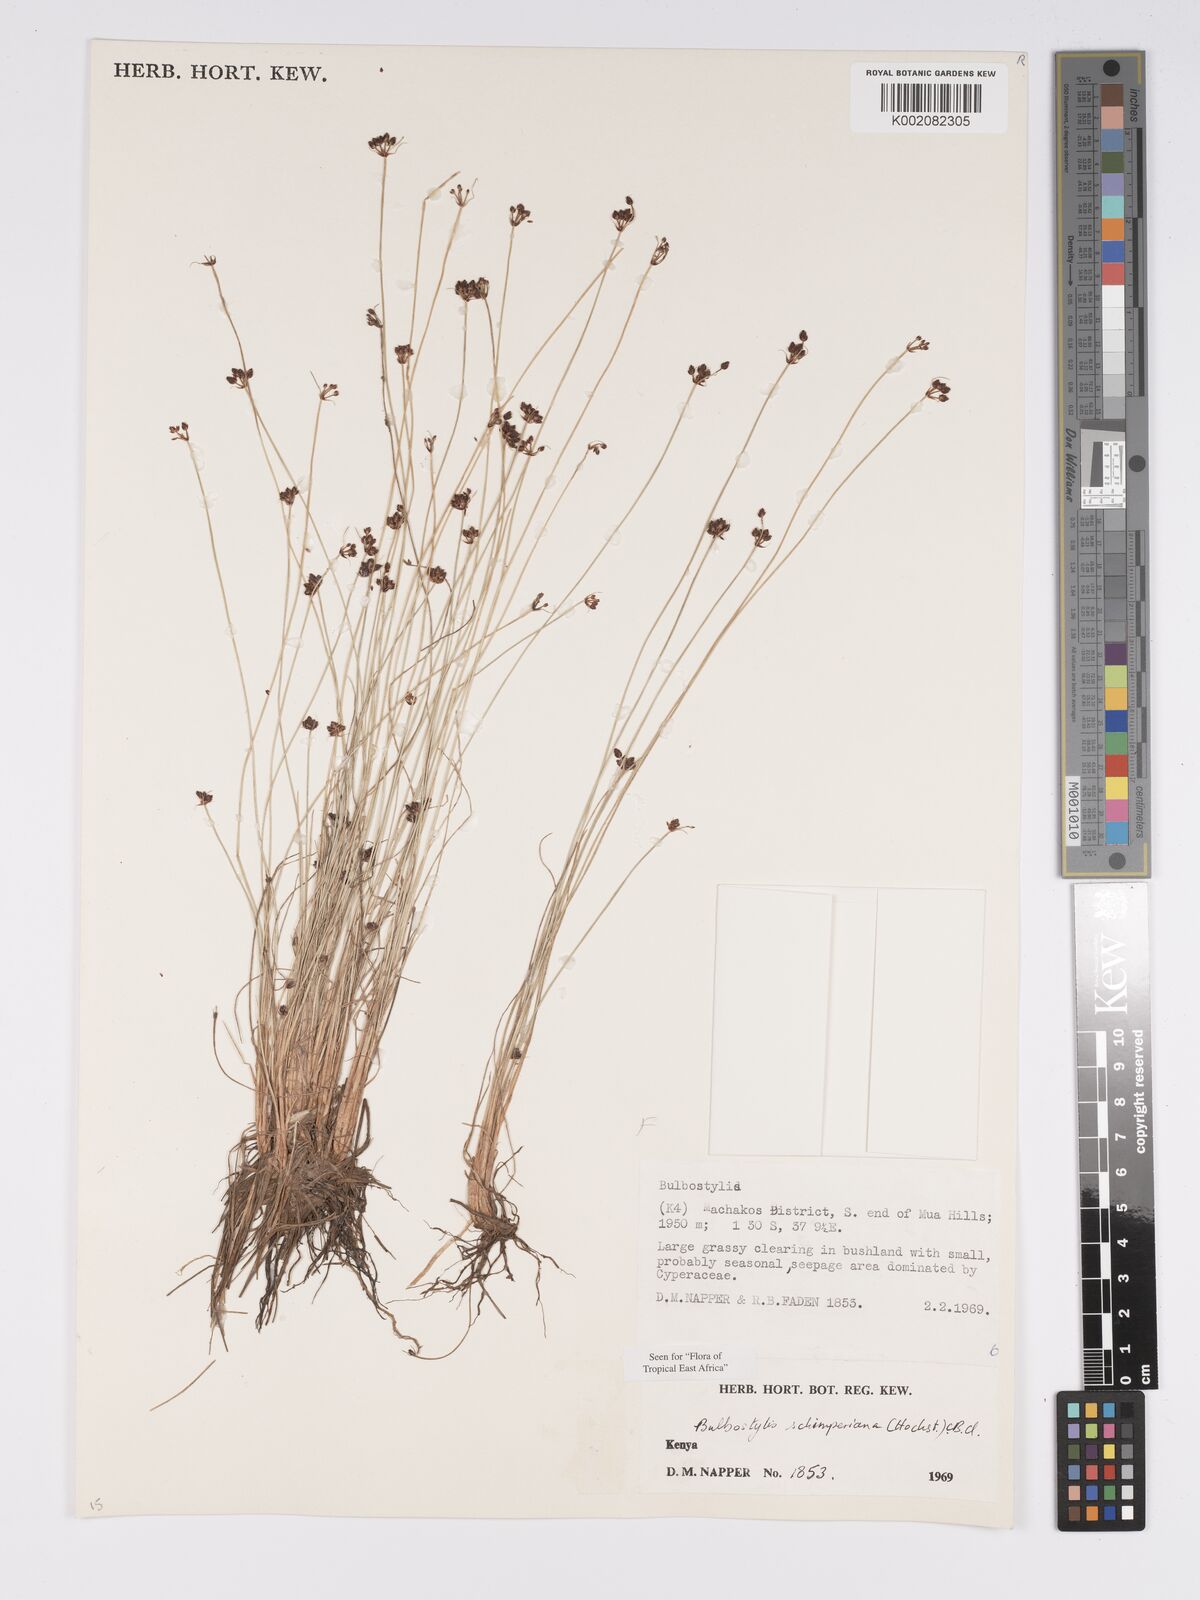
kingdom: Plantae
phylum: Tracheophyta
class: Liliopsida
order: Poales
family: Cyperaceae
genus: Bulbostylis
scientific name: Bulbostylis schimperiana
